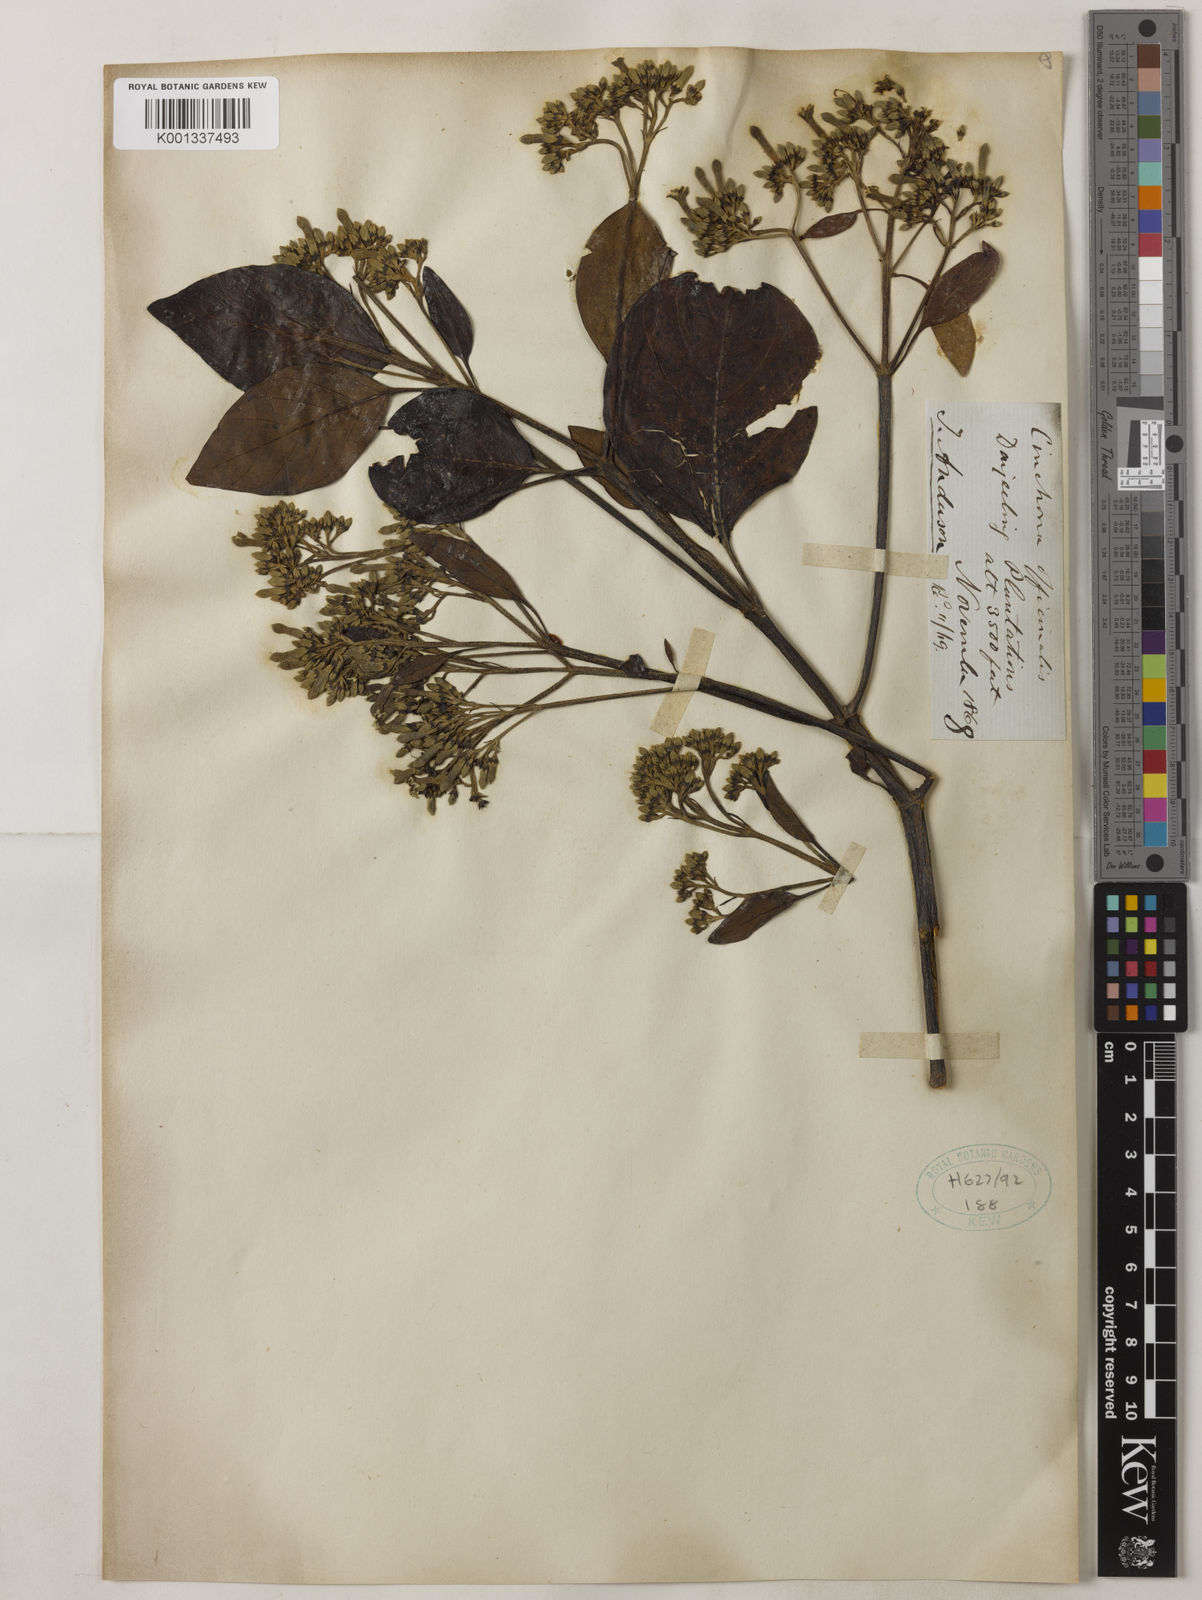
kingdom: Plantae
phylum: Tracheophyta
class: Magnoliopsida
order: Gentianales
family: Rubiaceae
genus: Cinchona
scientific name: Cinchona officinalis
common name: Lojabark
